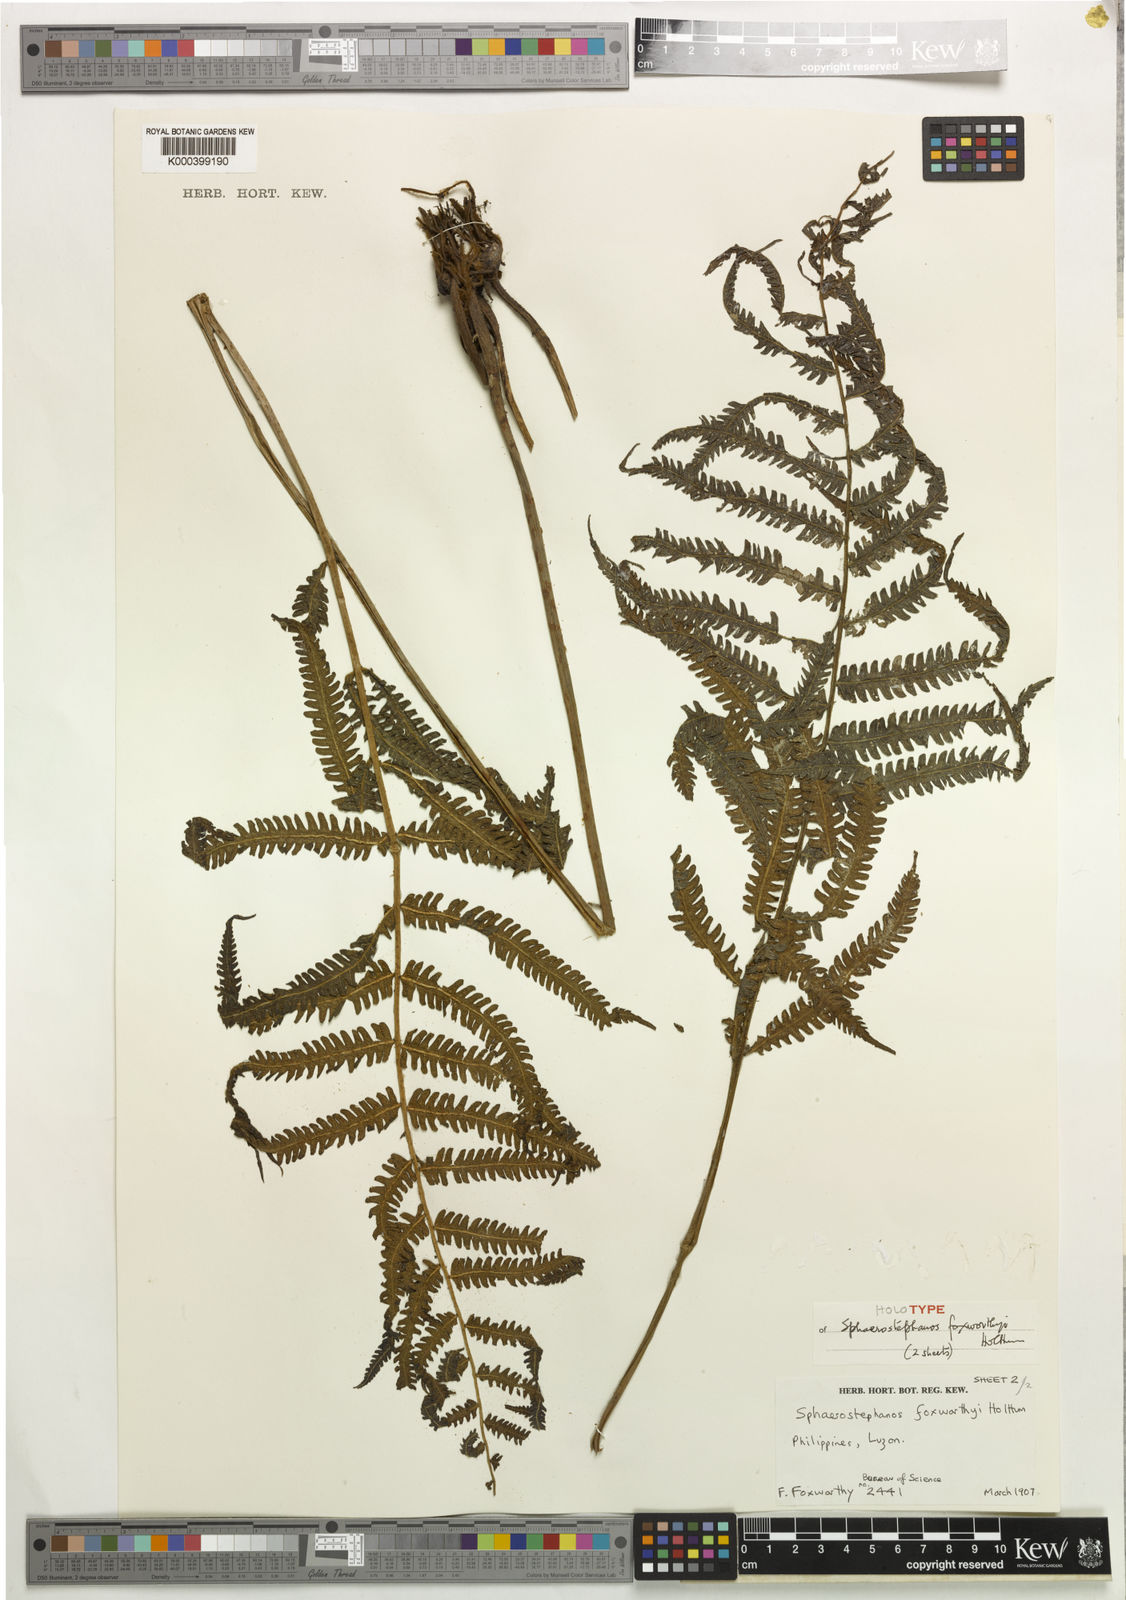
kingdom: Plantae
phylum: Tracheophyta
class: Polypodiopsida
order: Polypodiales
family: Thelypteridaceae
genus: Sphaerostephanos
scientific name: Sphaerostephanos foxworthyi
